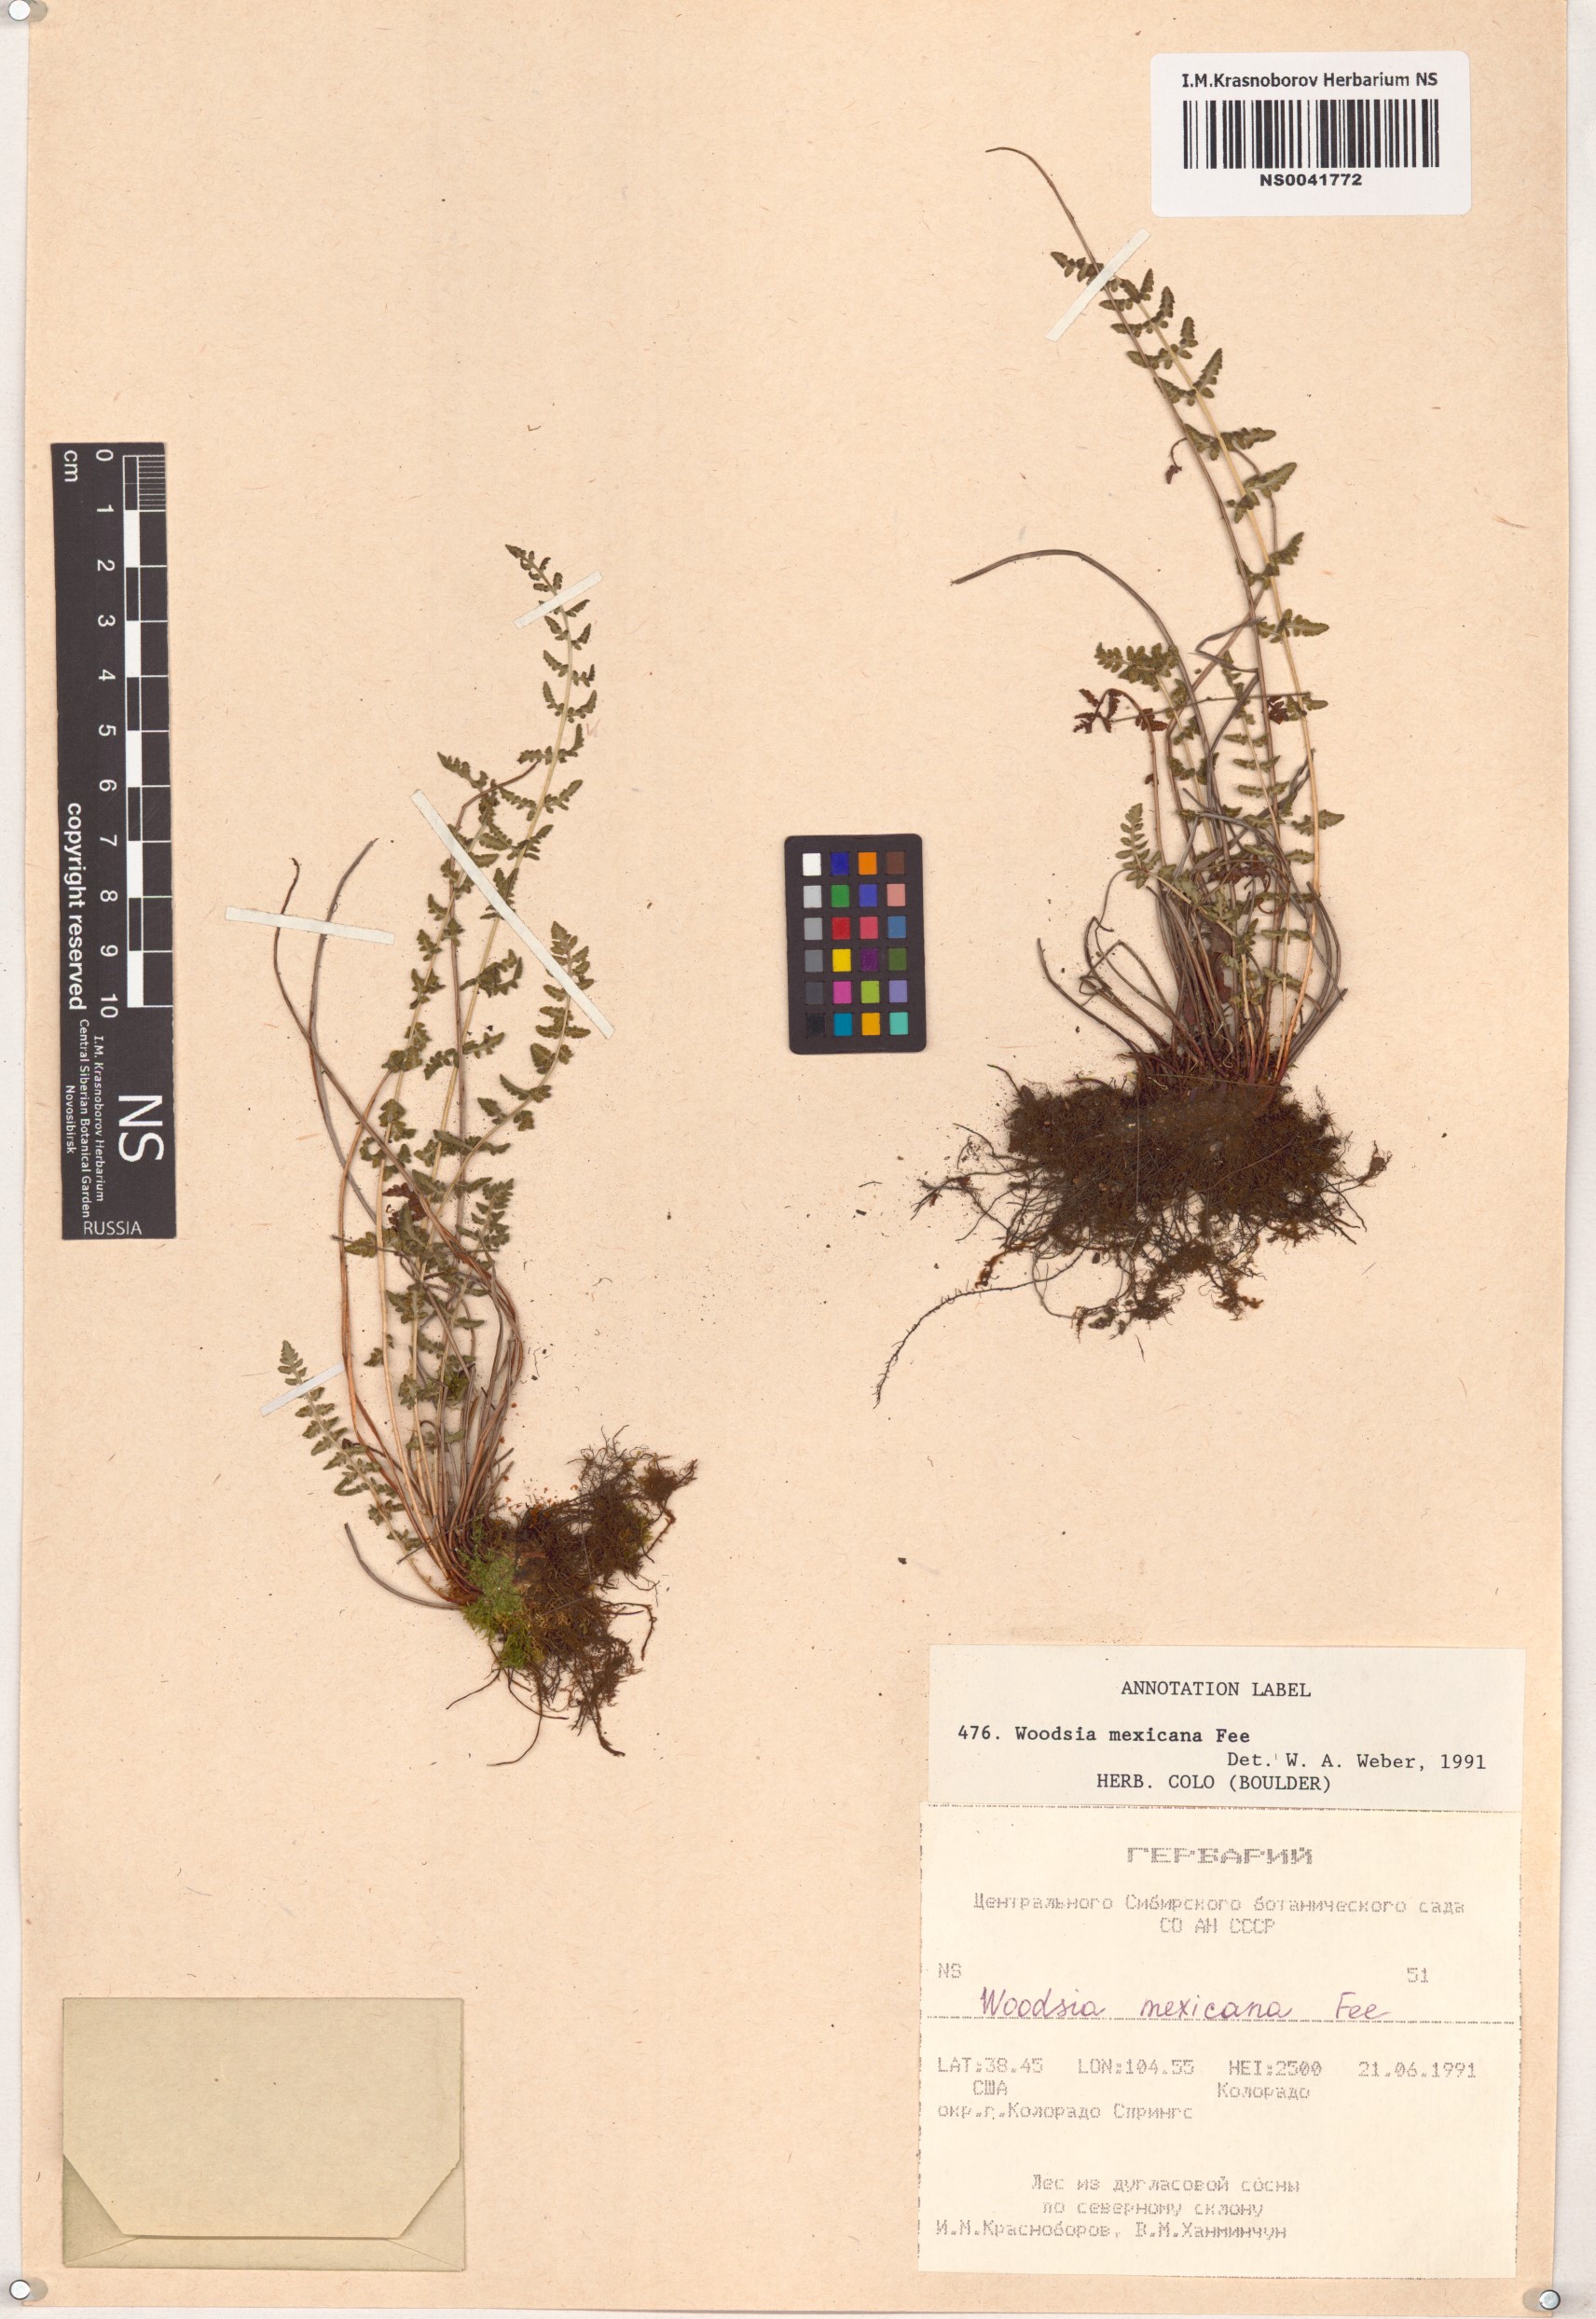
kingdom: Plantae
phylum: Tracheophyta
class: Polypodiopsida
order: Polypodiales
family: Woodsiaceae
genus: Physematium
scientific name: Physematium mexicanum
